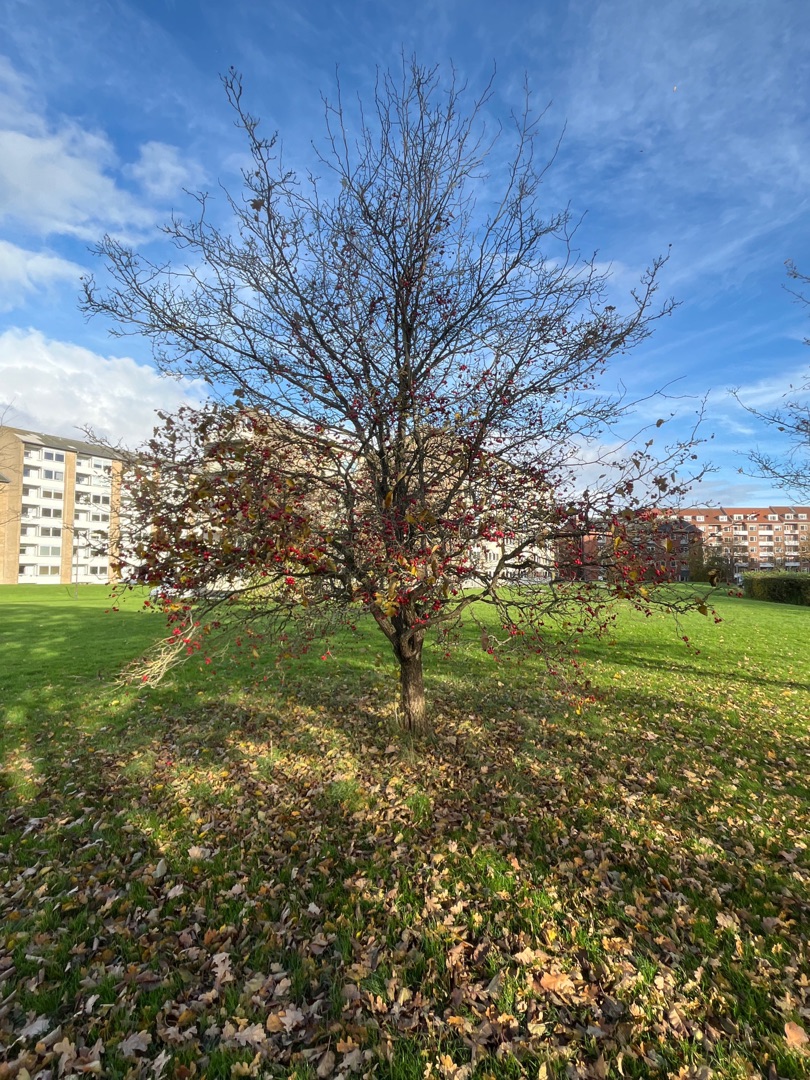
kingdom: Plantae
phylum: Tracheophyta
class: Magnoliopsida
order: Rosales
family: Rosaceae
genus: Crataegus
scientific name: Crataegus
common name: Hvidtjørnslægten
